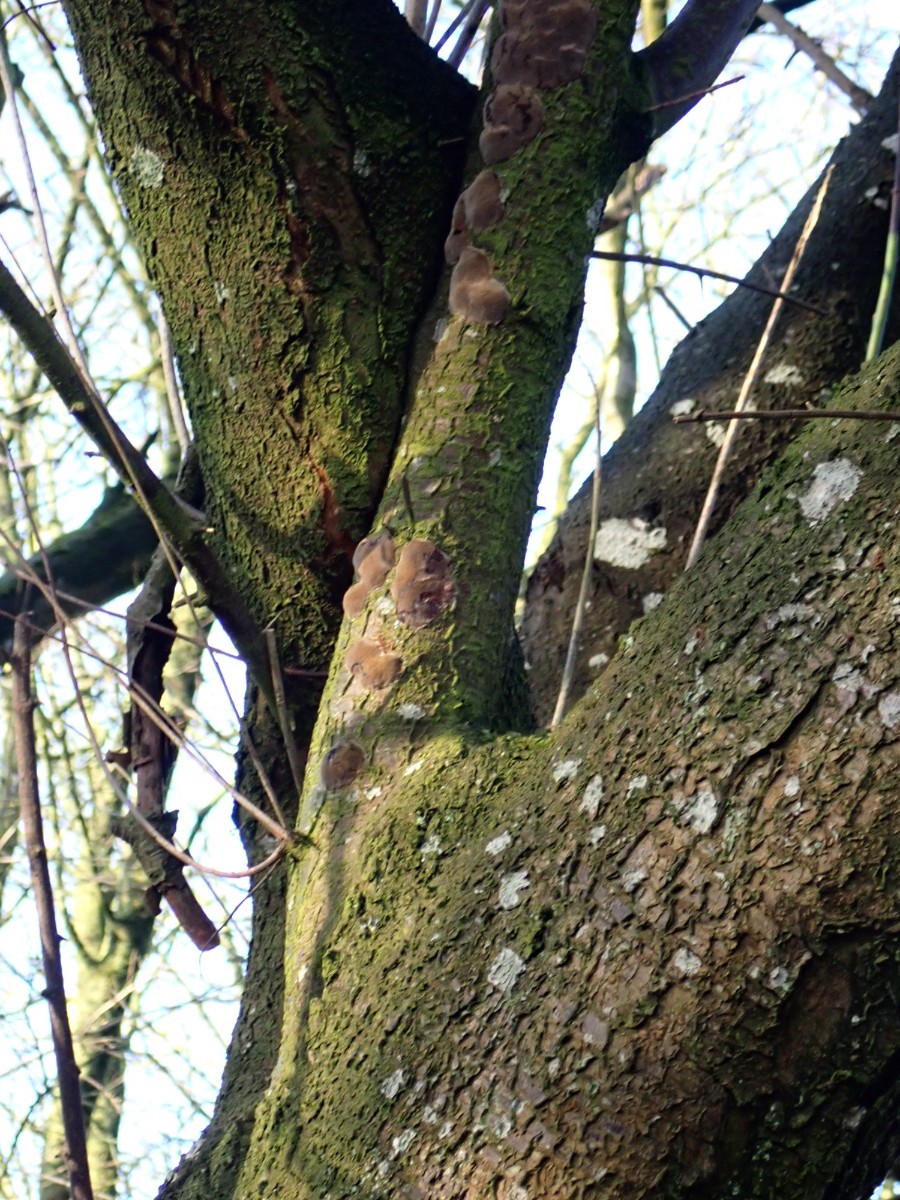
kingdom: Fungi
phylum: Basidiomycota
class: Agaricomycetes
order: Hymenochaetales
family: Hymenochaetaceae
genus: Phellinus
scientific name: Phellinus pomaceus
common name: blomme-ildporesvamp
